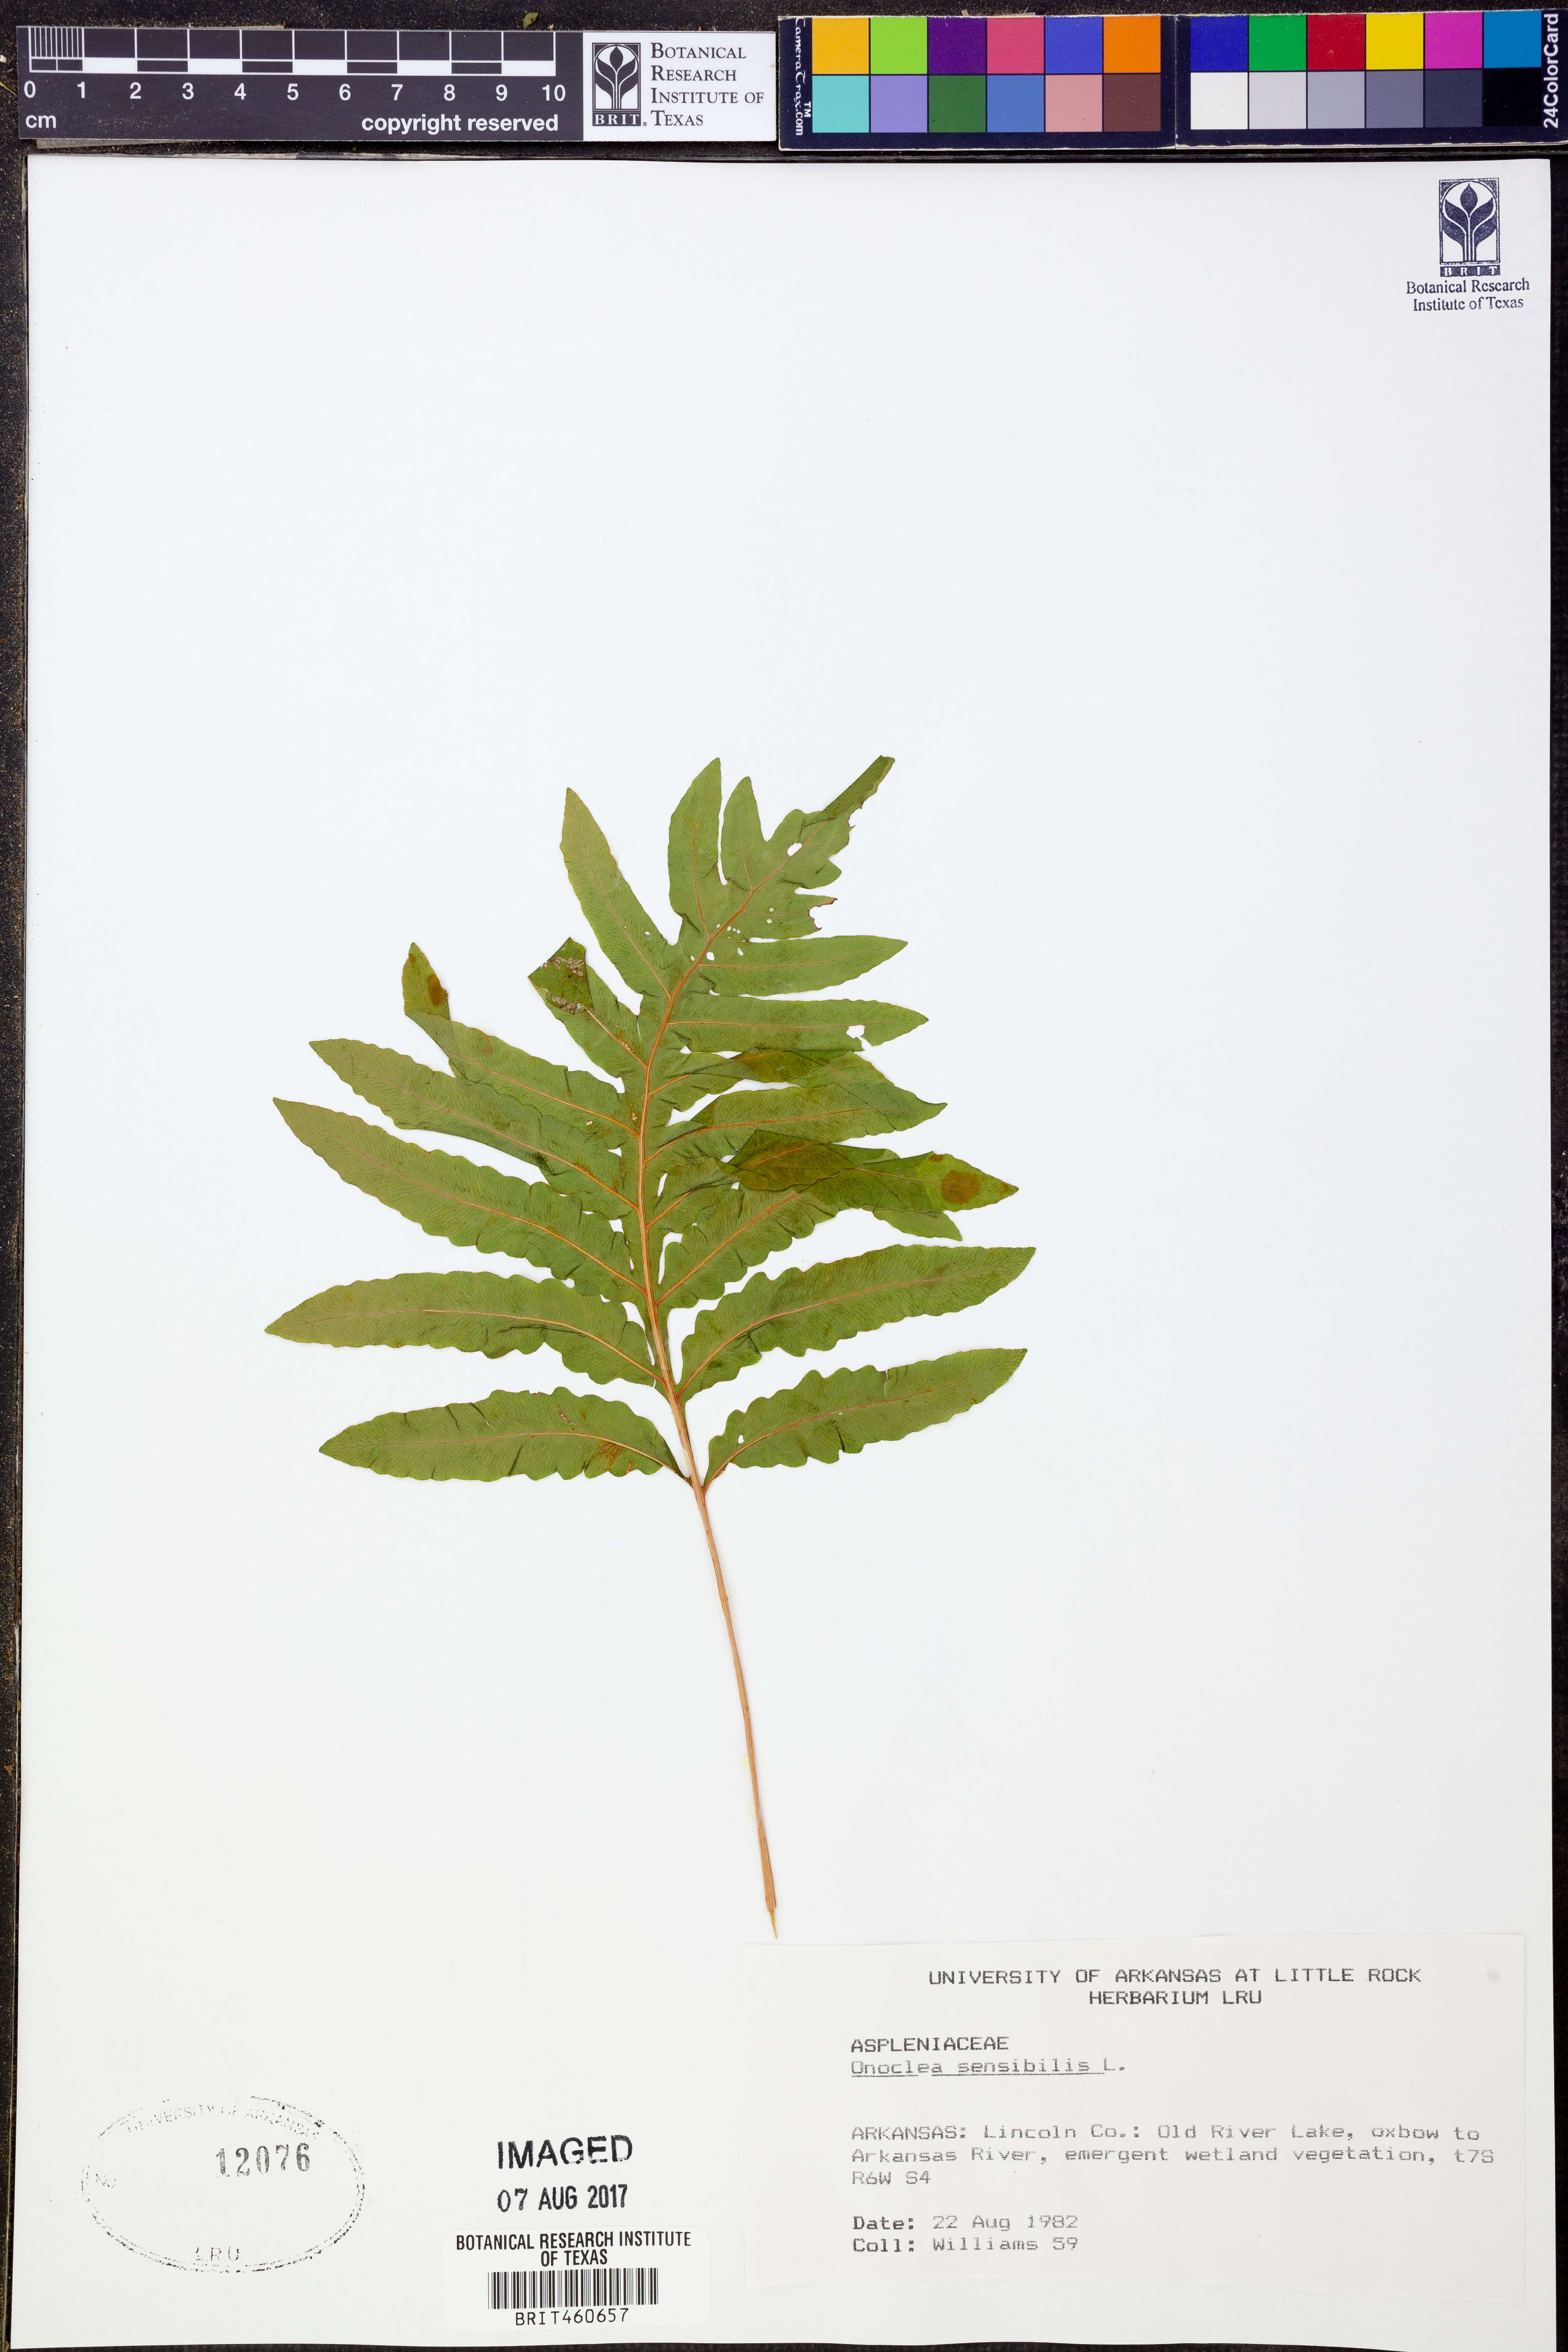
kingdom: Plantae
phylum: Tracheophyta
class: Polypodiopsida
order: Polypodiales
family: Onocleaceae
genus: Onoclea
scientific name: Onoclea sensibilis
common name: Sensitive fern
